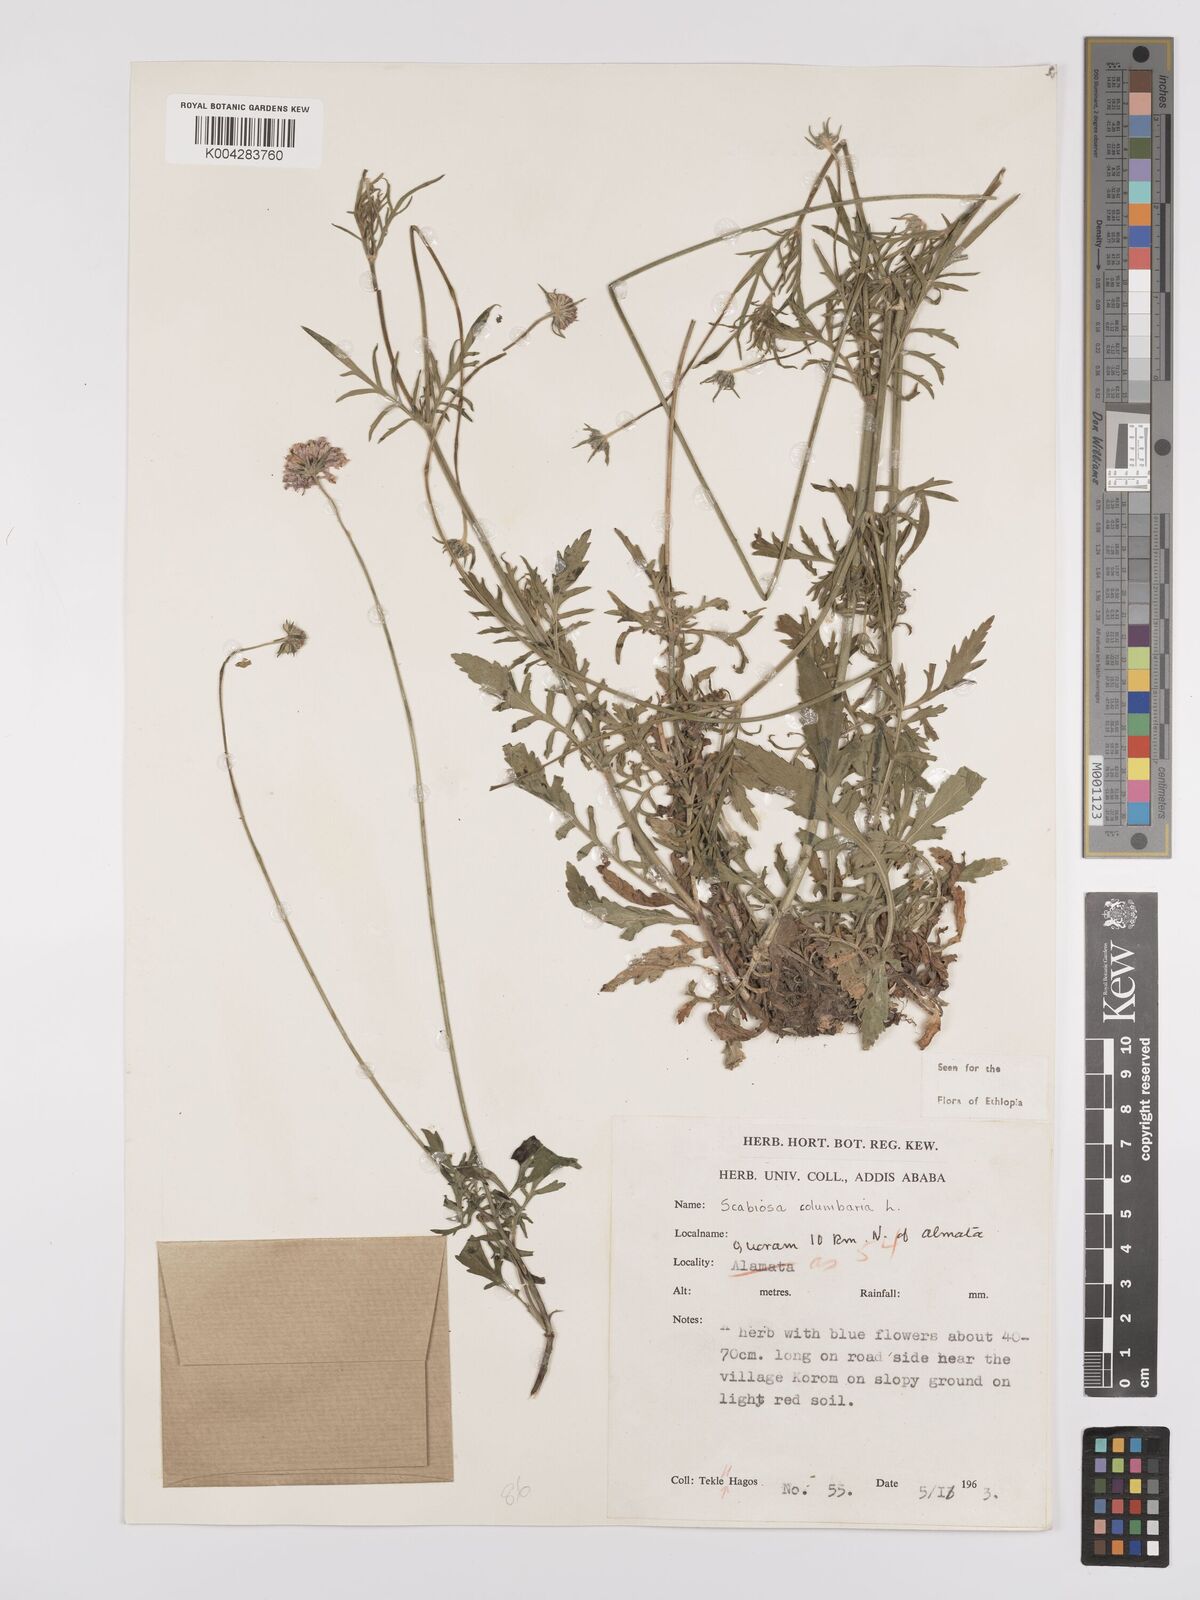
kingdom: Plantae
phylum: Tracheophyta
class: Magnoliopsida
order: Dipsacales
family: Caprifoliaceae
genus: Scabiosa
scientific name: Scabiosa columbaria
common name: Small scabious
